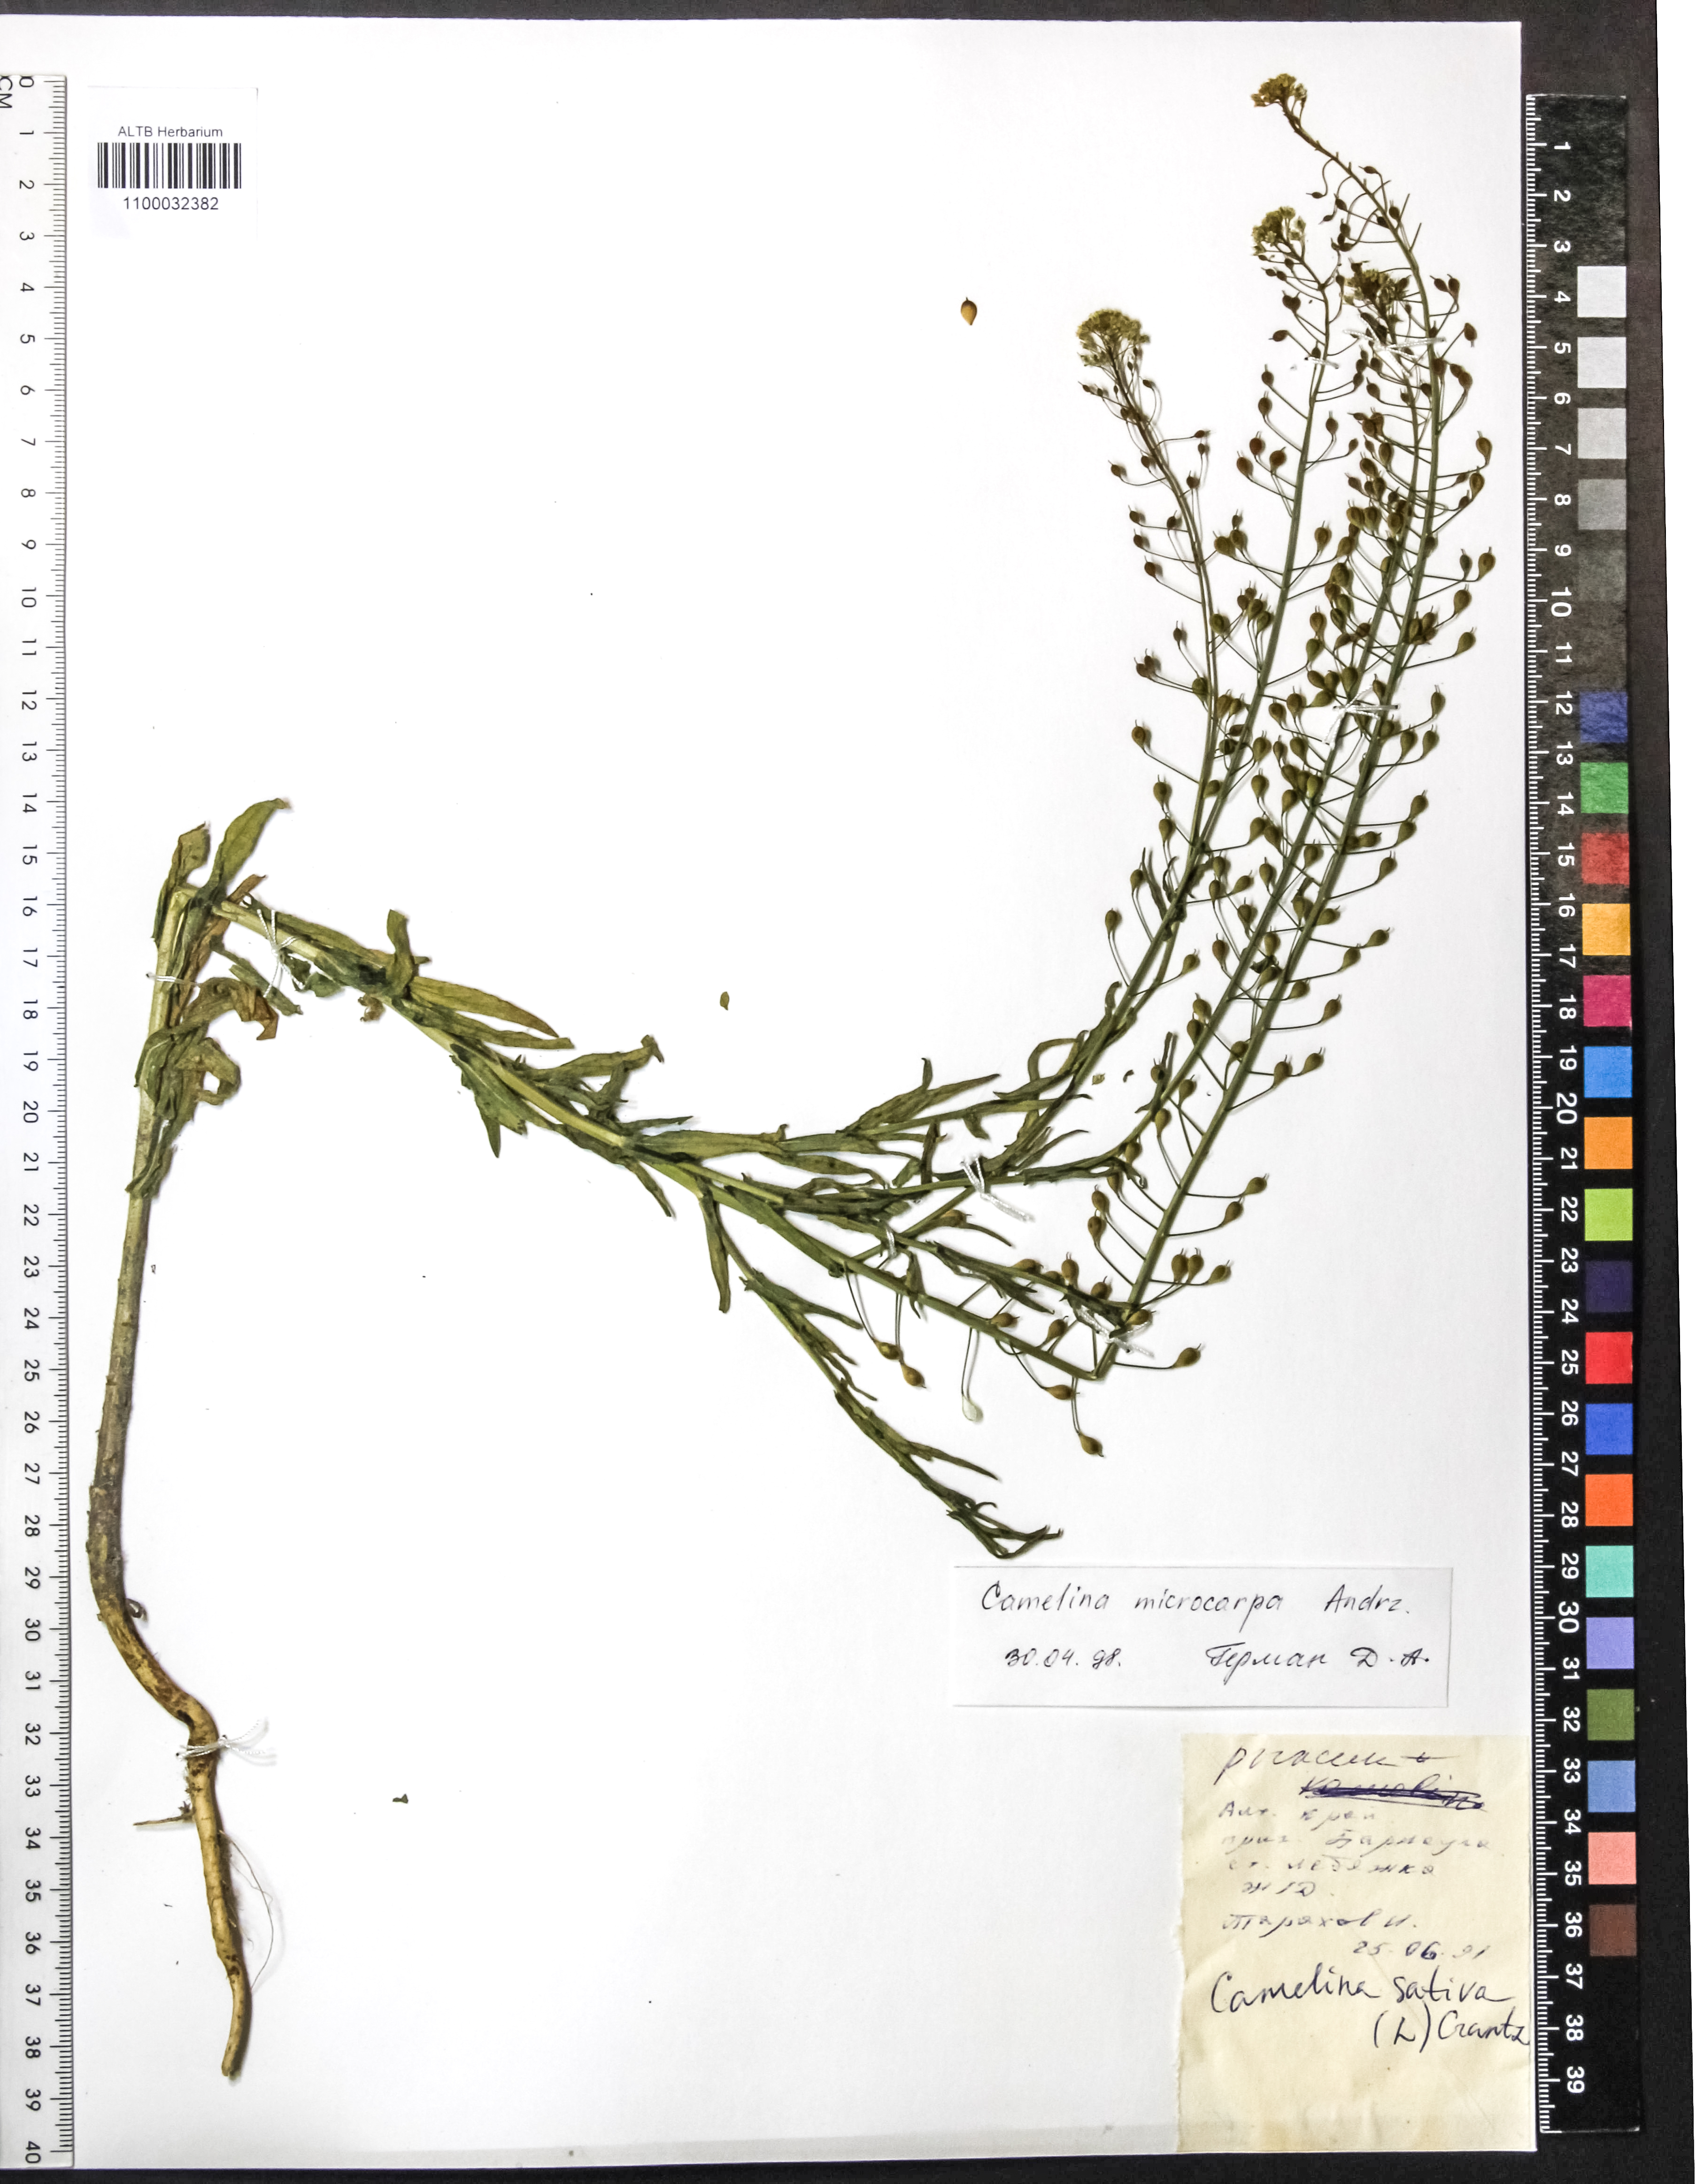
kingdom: Plantae
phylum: Tracheophyta
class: Magnoliopsida
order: Brassicales
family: Brassicaceae
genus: Camelina
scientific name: Camelina microcarpa
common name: Lesser gold-of-pleasure
